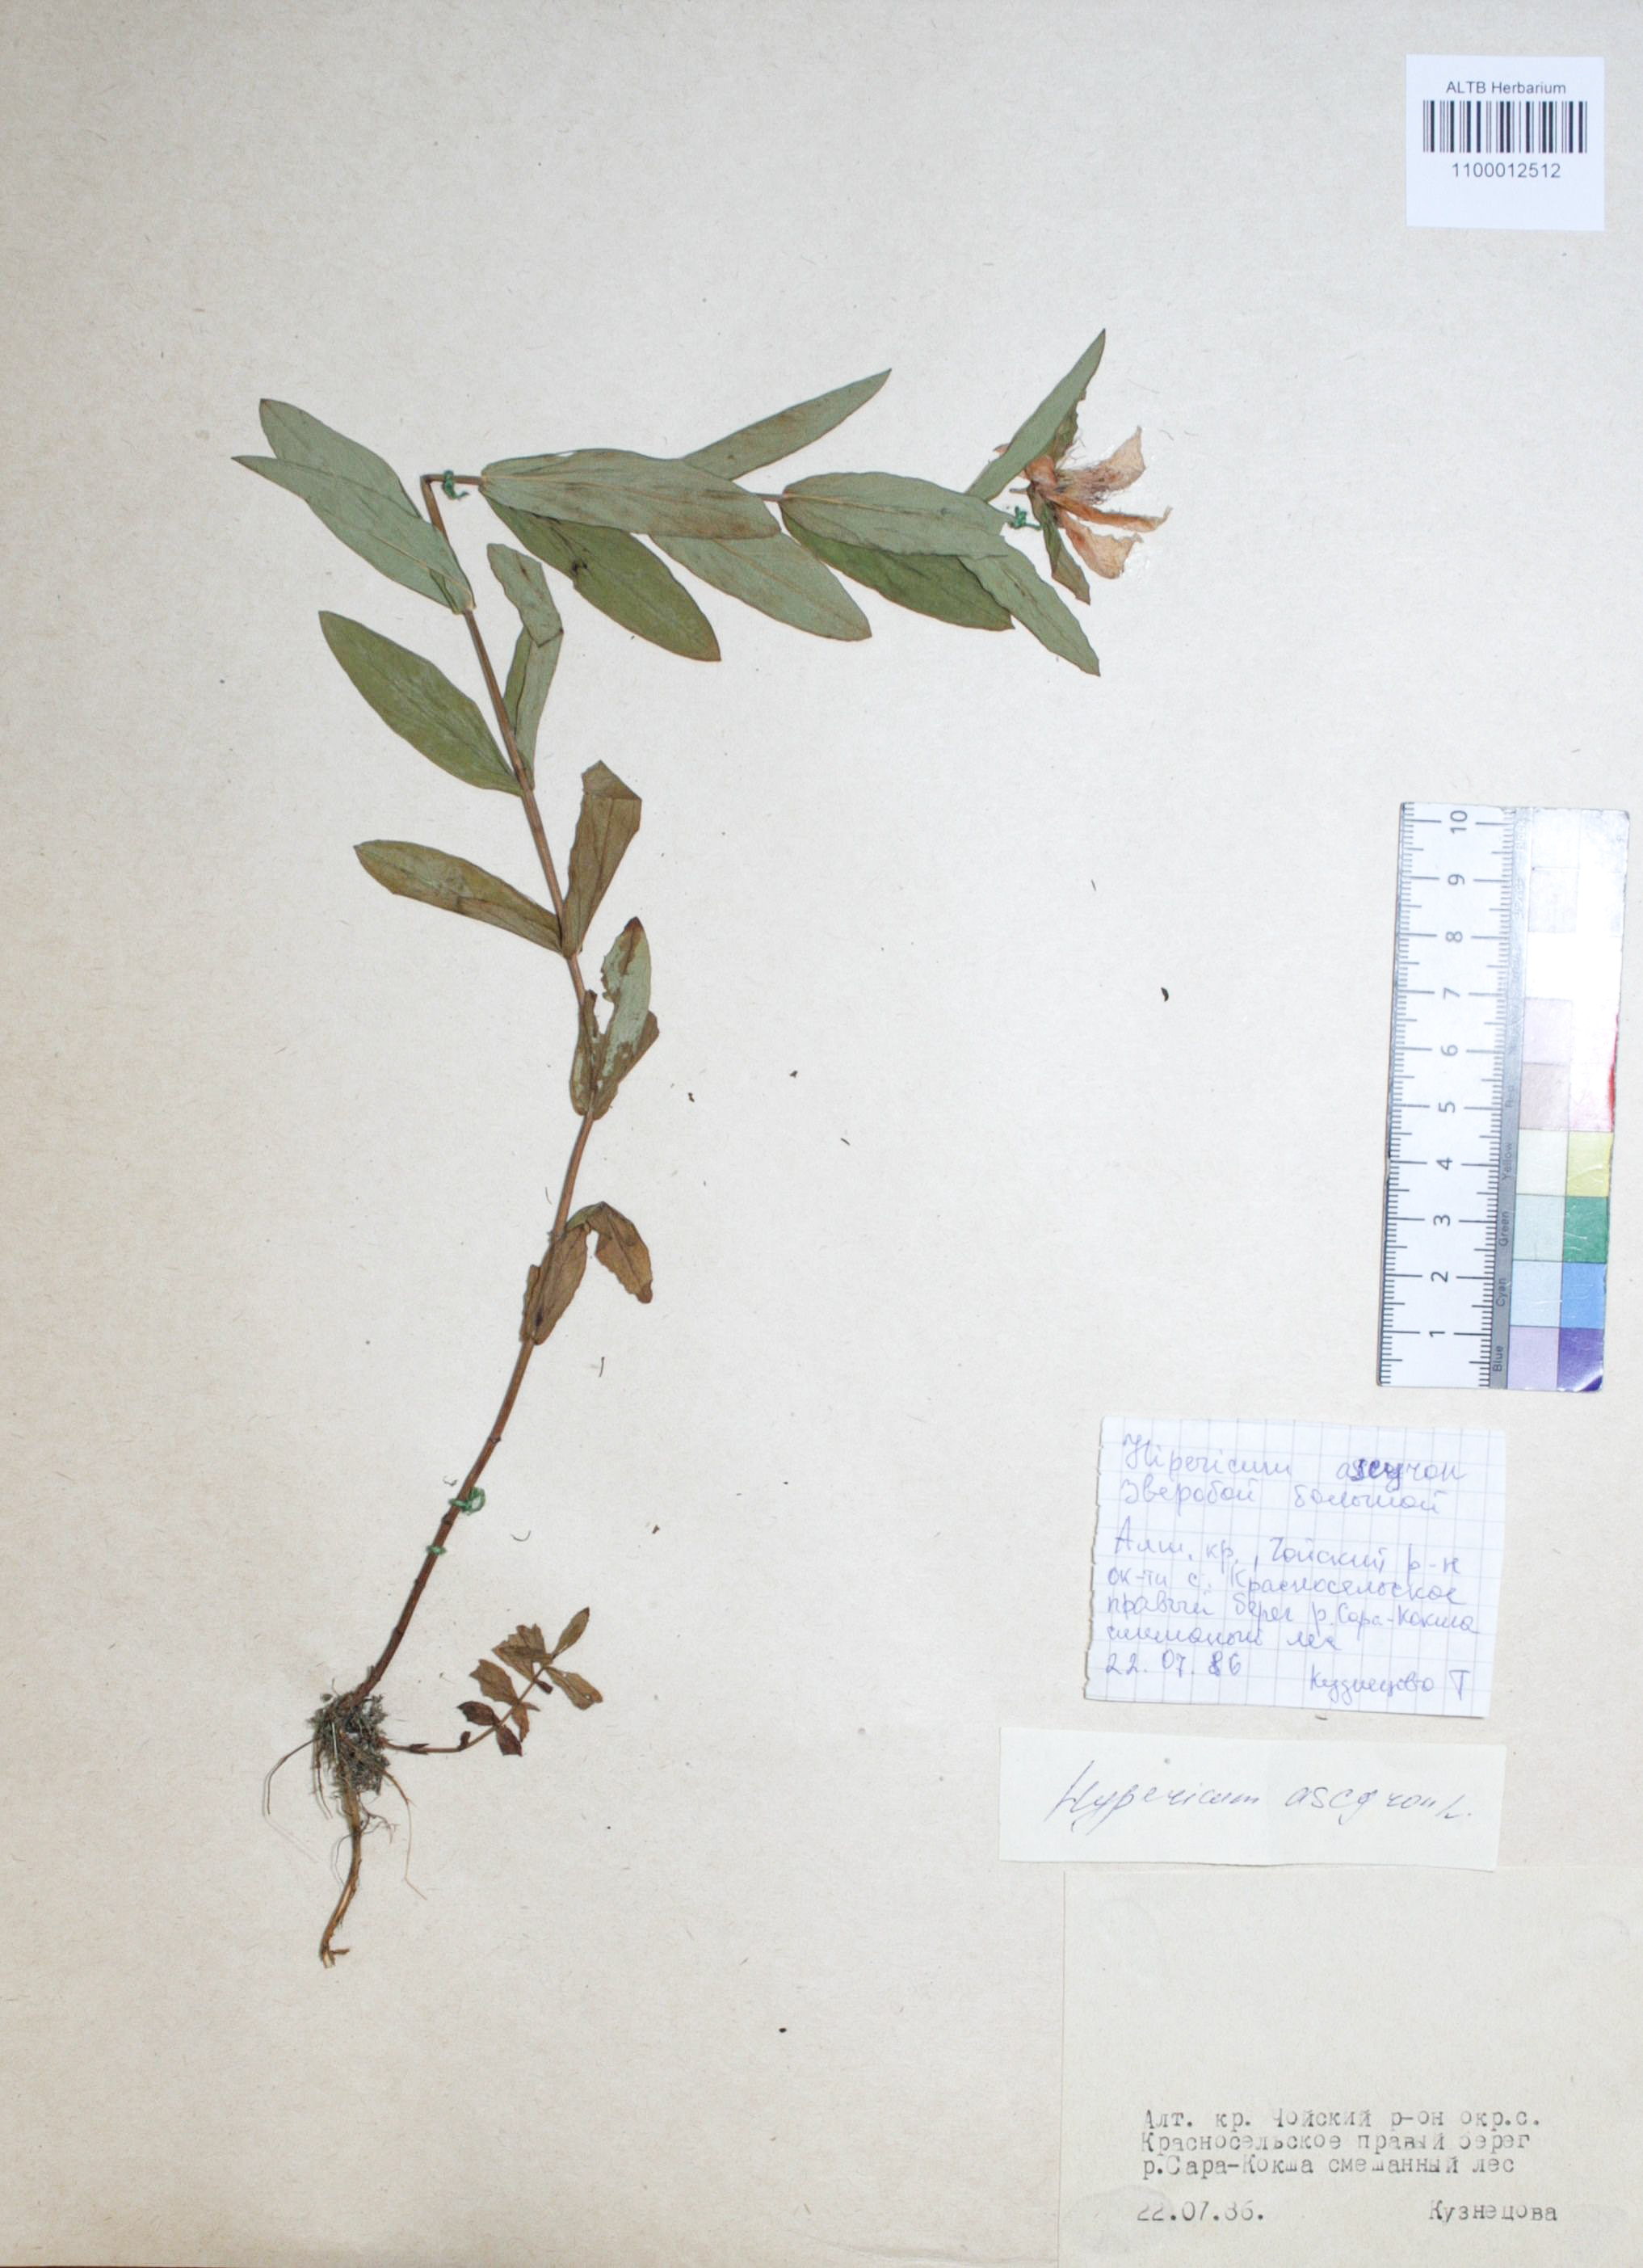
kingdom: Plantae
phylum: Tracheophyta
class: Magnoliopsida
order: Malpighiales
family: Hypericaceae
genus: Hypericum
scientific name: Hypericum ascyron
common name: Giant st. john's-wort
